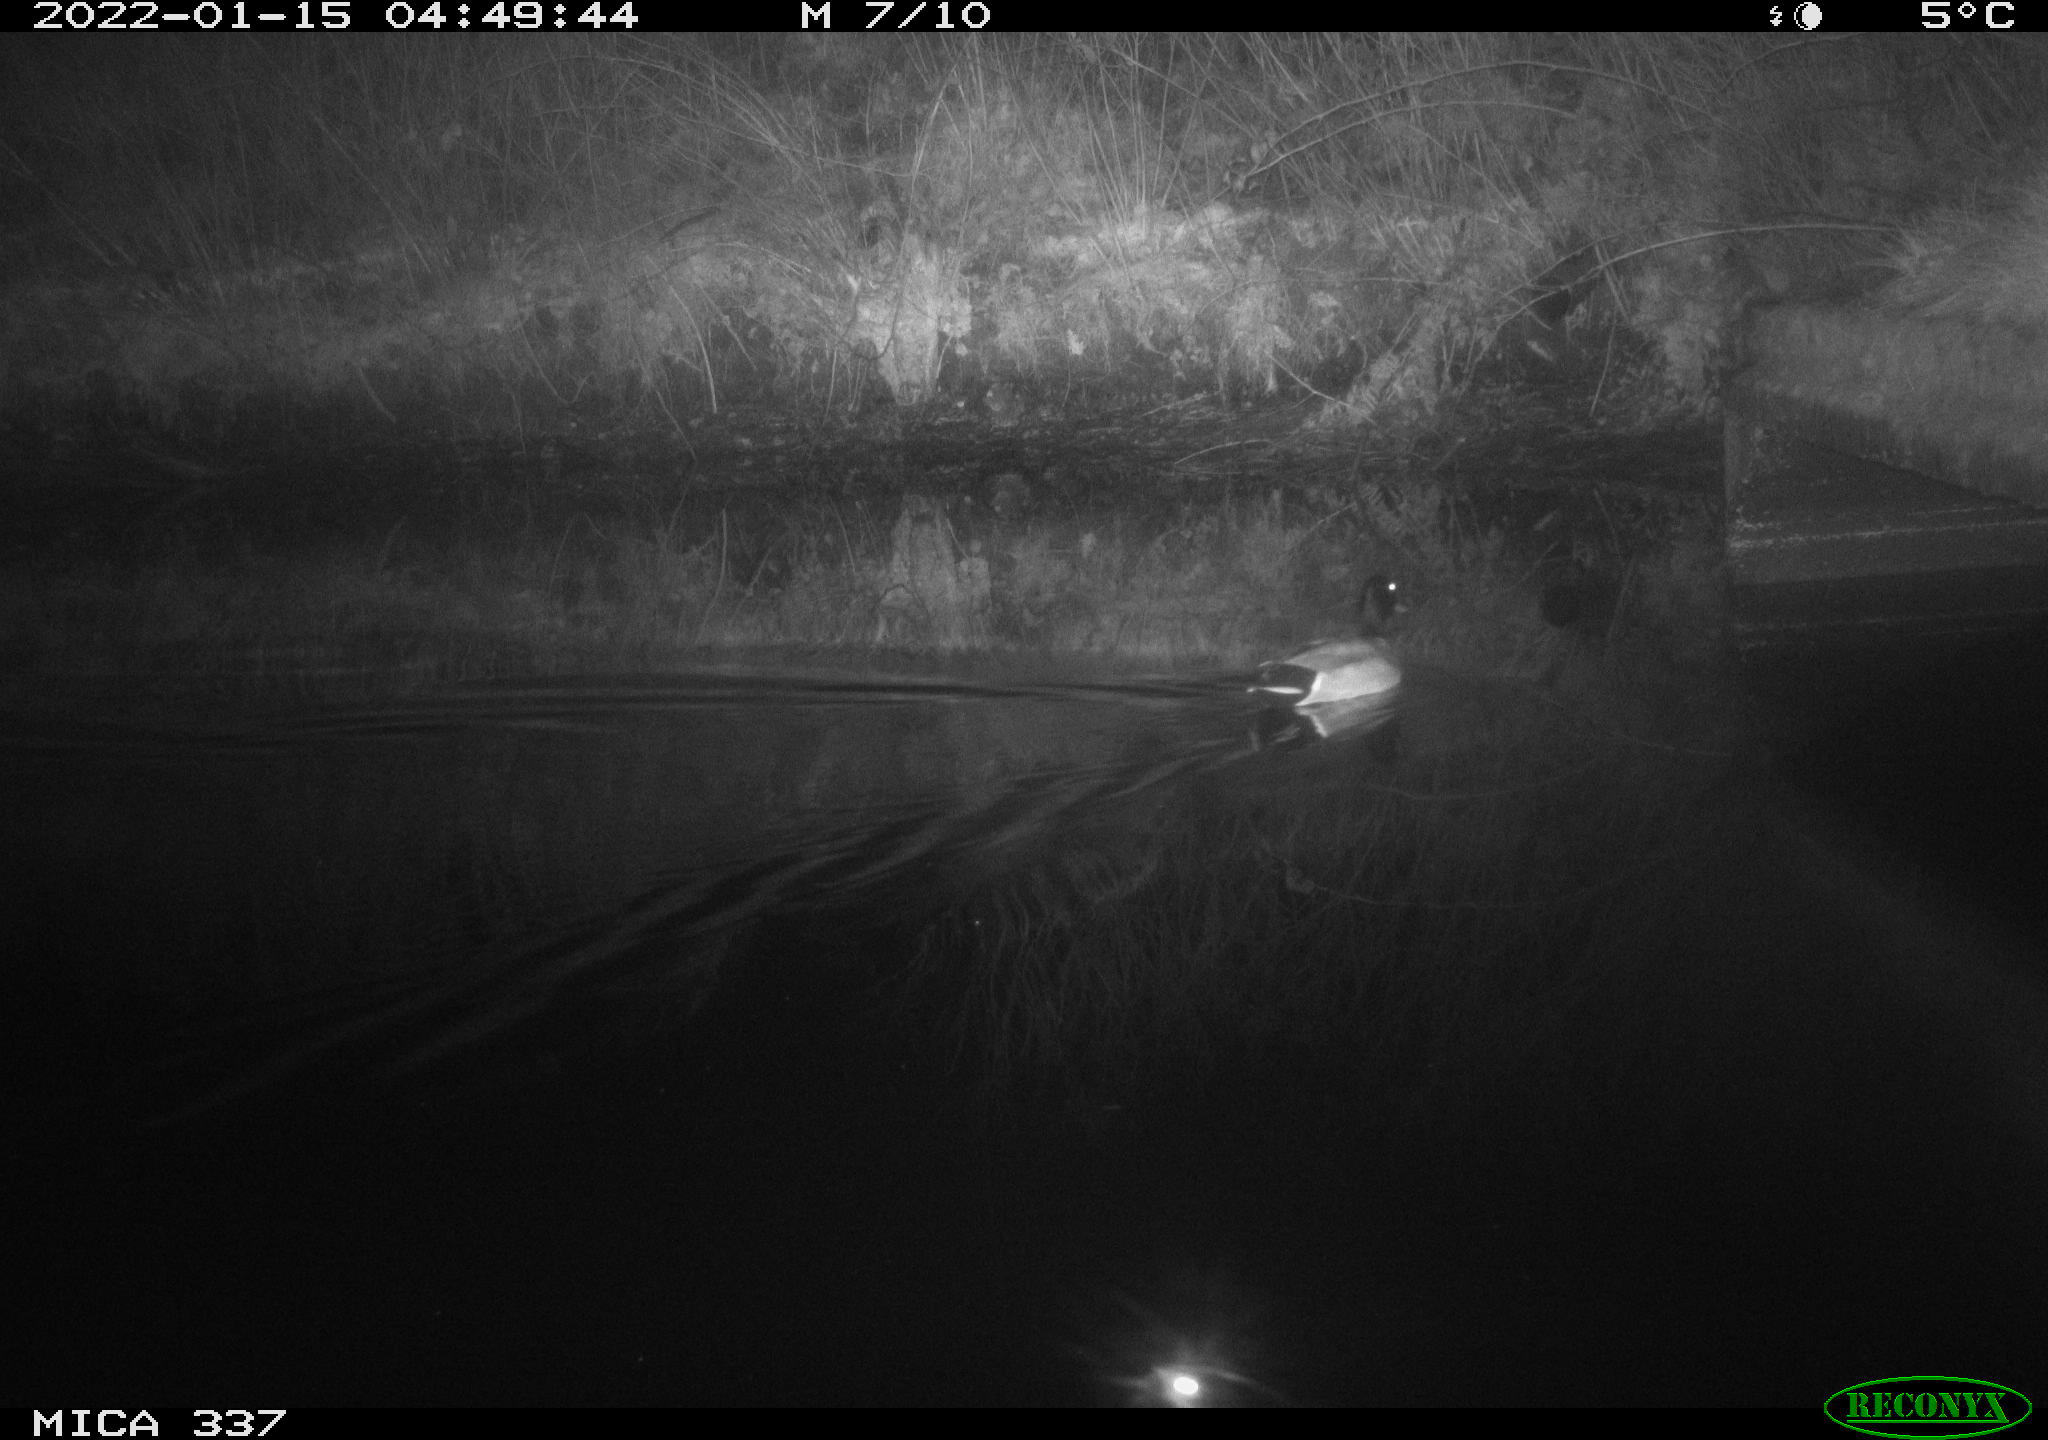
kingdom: Animalia
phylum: Chordata
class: Aves
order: Anseriformes
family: Anatidae
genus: Anas
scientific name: Anas platyrhynchos
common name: Mallard
